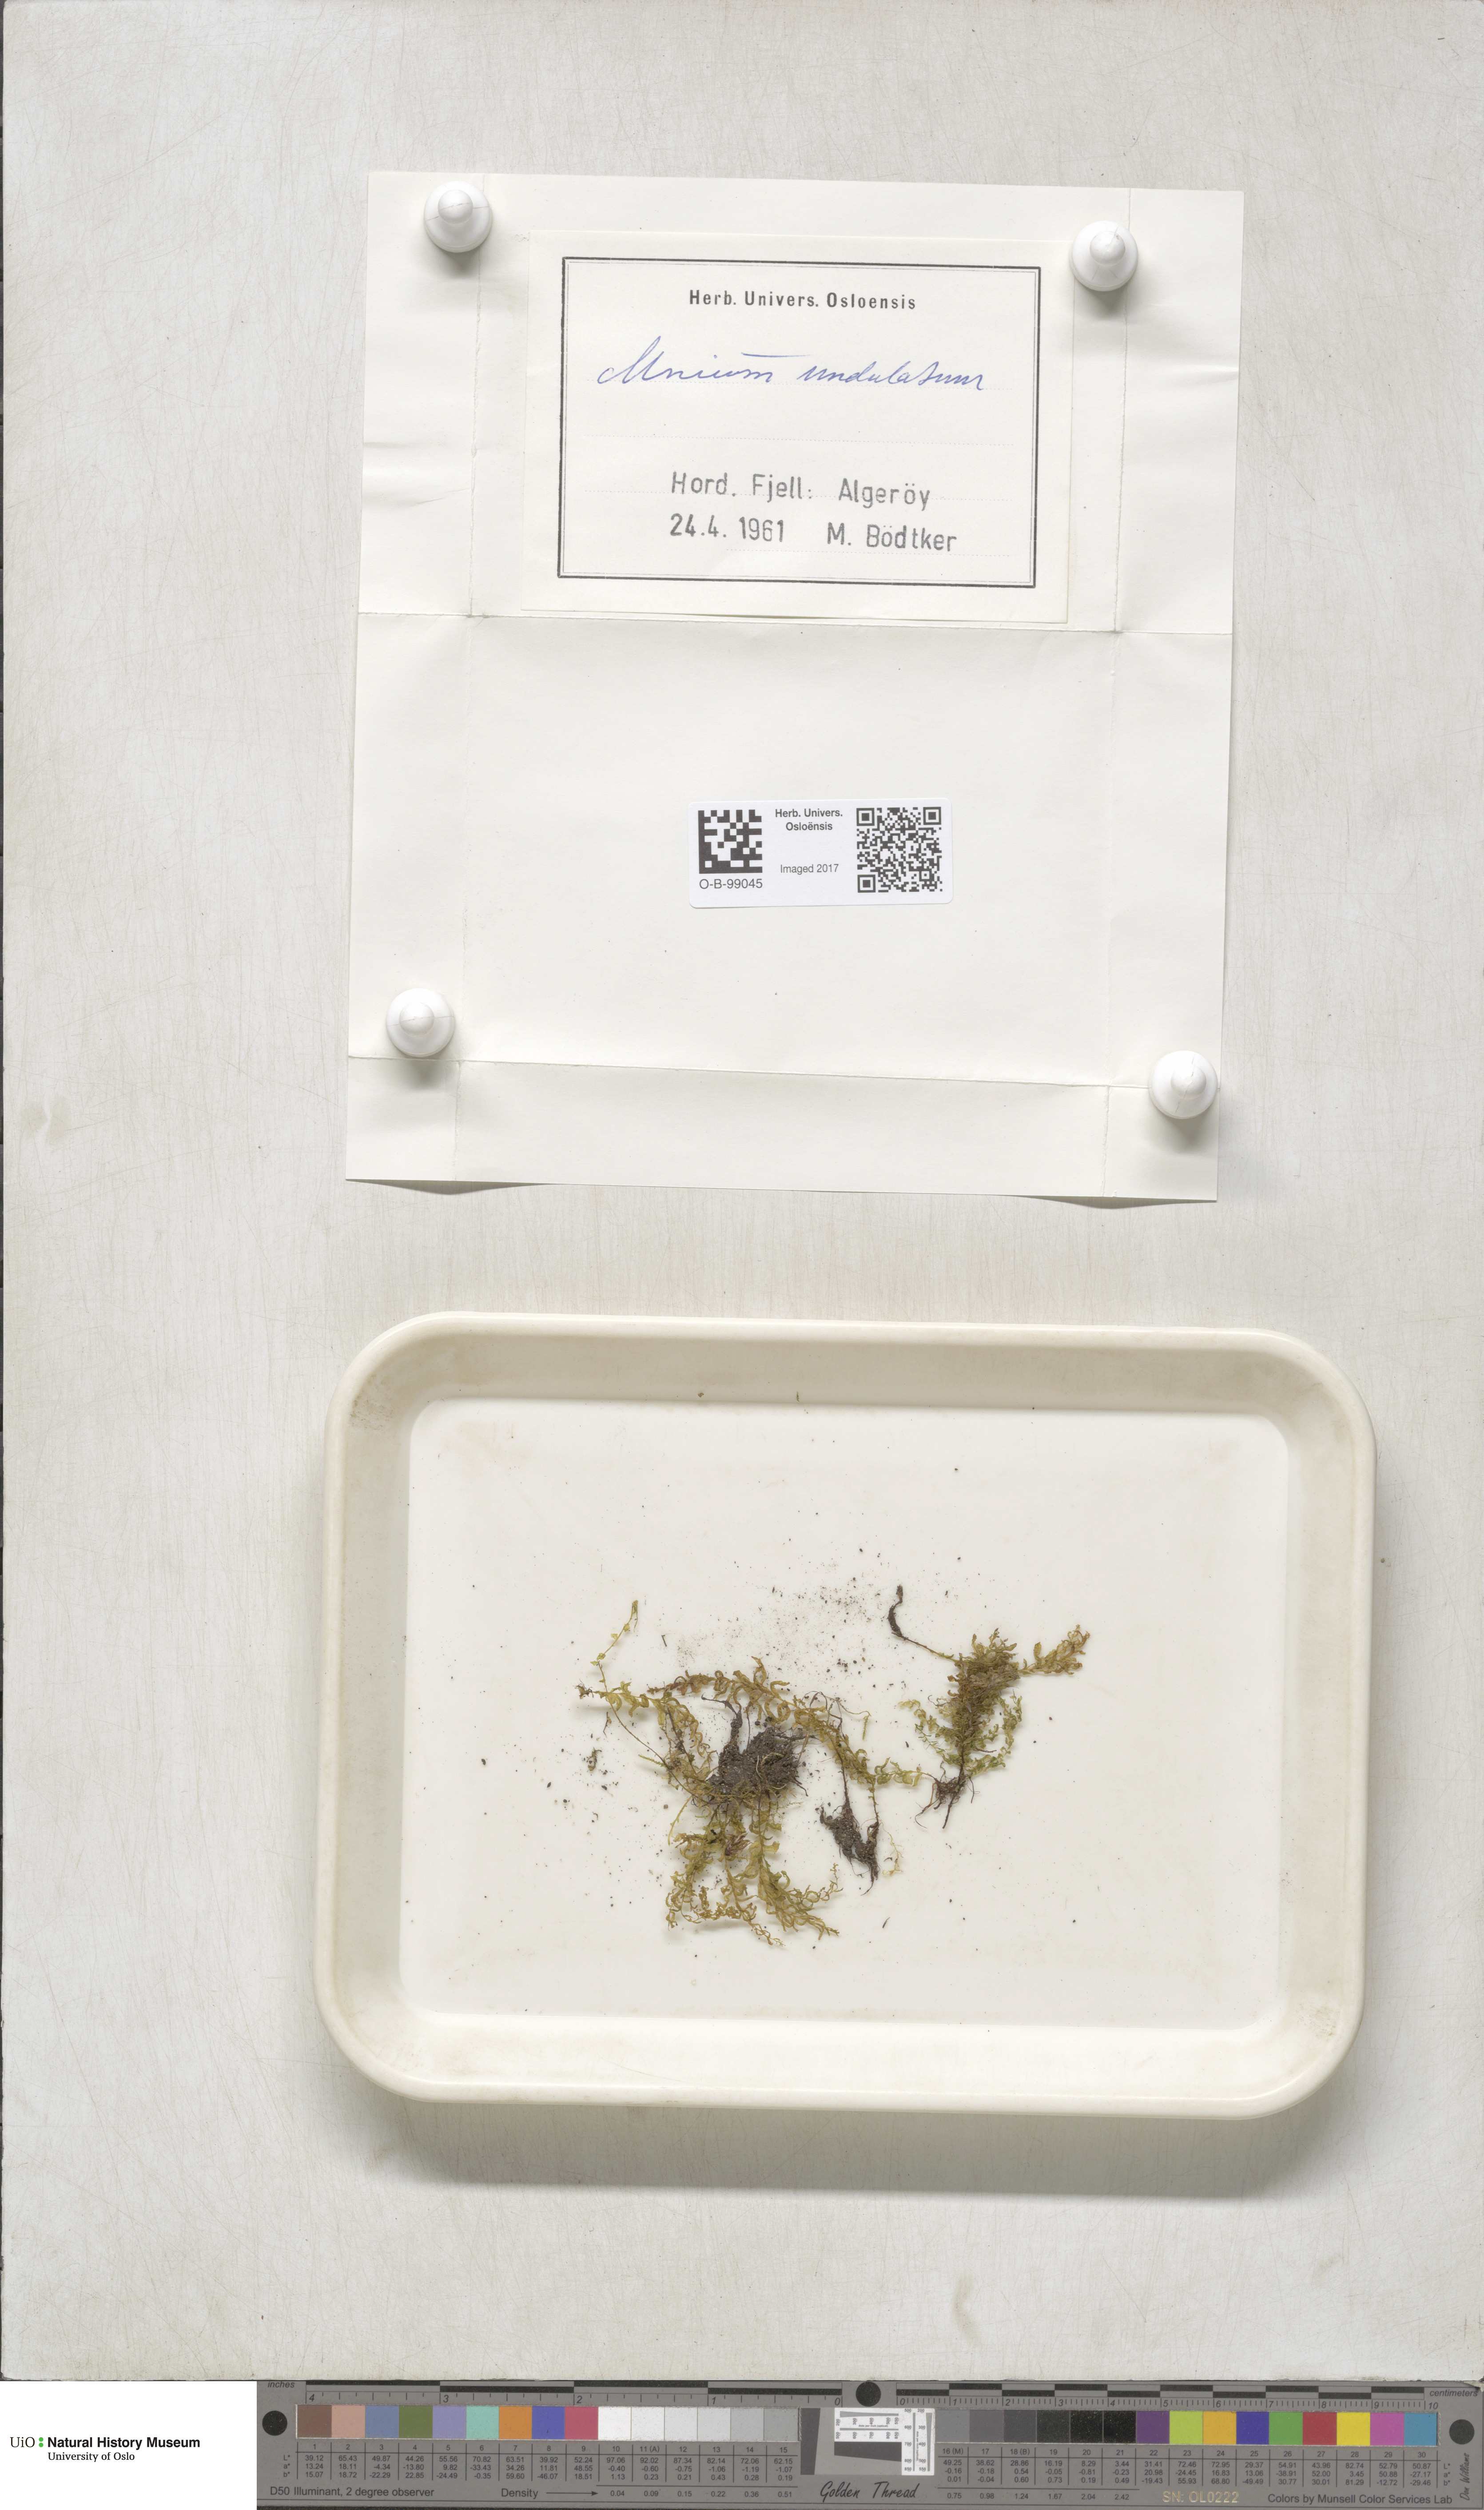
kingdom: Plantae
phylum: Bryophyta
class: Bryopsida
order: Bryales
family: Mniaceae
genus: Plagiomnium
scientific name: Plagiomnium undulatum
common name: Hart's-tongue thyme-moss
